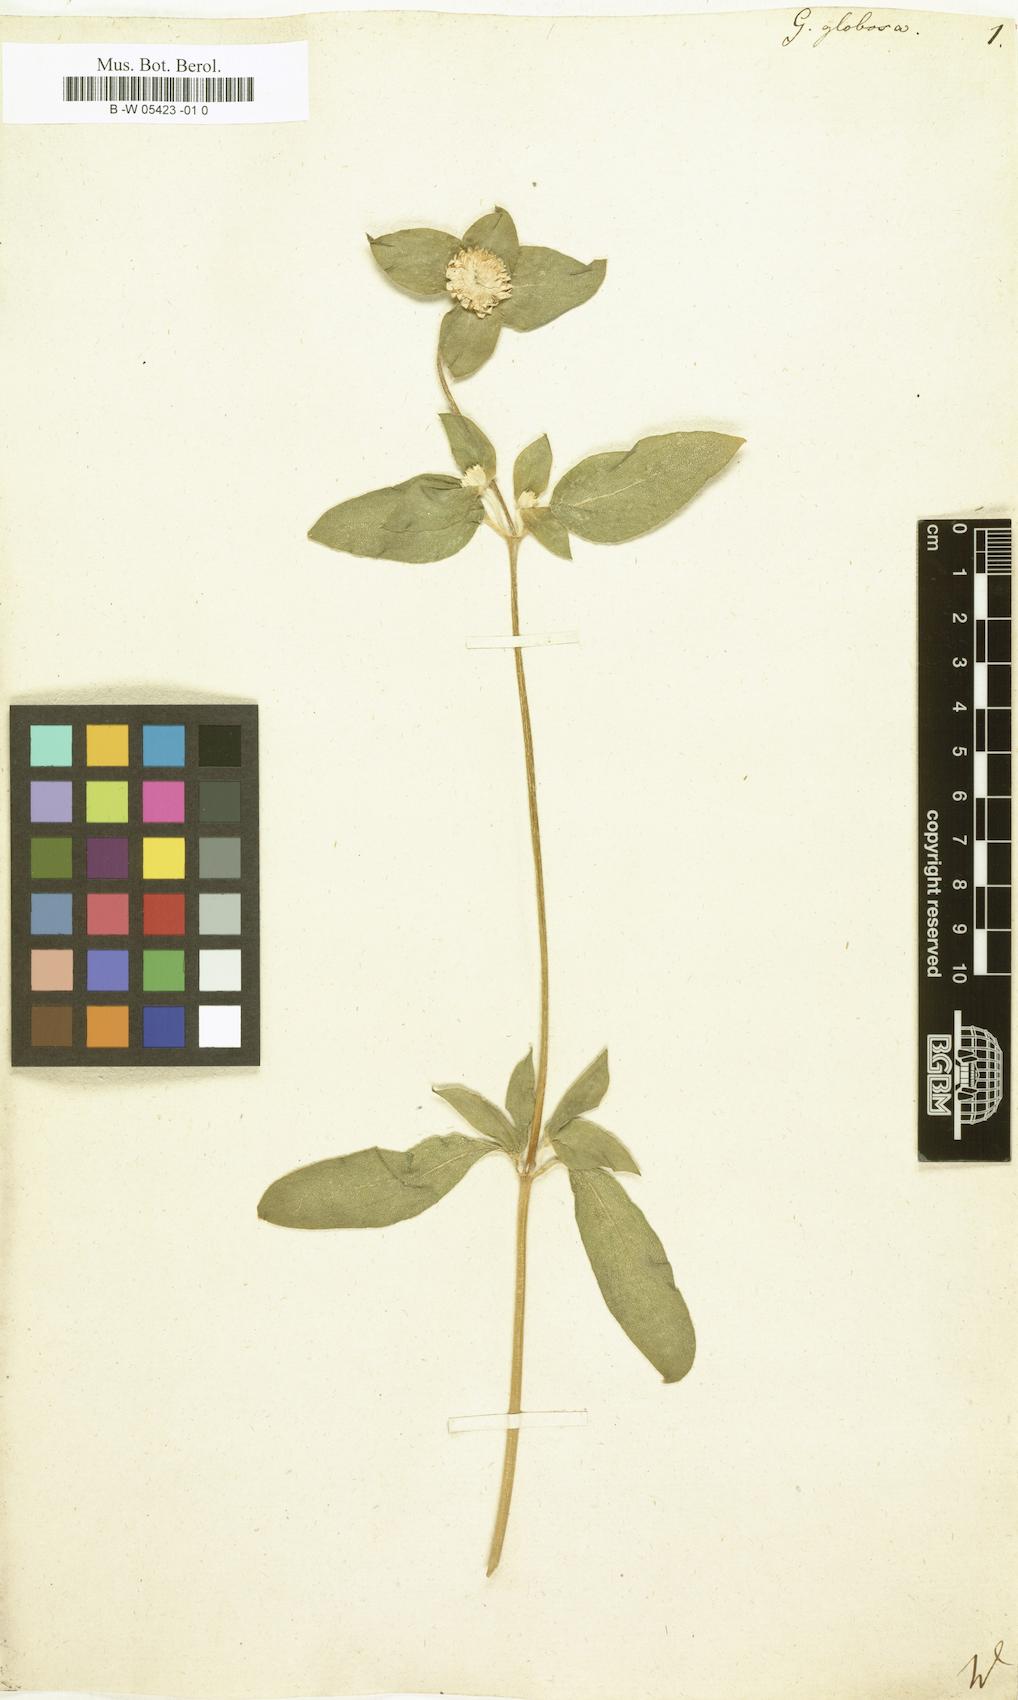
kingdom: Plantae
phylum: Tracheophyta
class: Magnoliopsida
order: Caryophyllales
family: Amaranthaceae
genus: Gomphrena
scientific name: Gomphrena globosa
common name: Common globe amaranth
